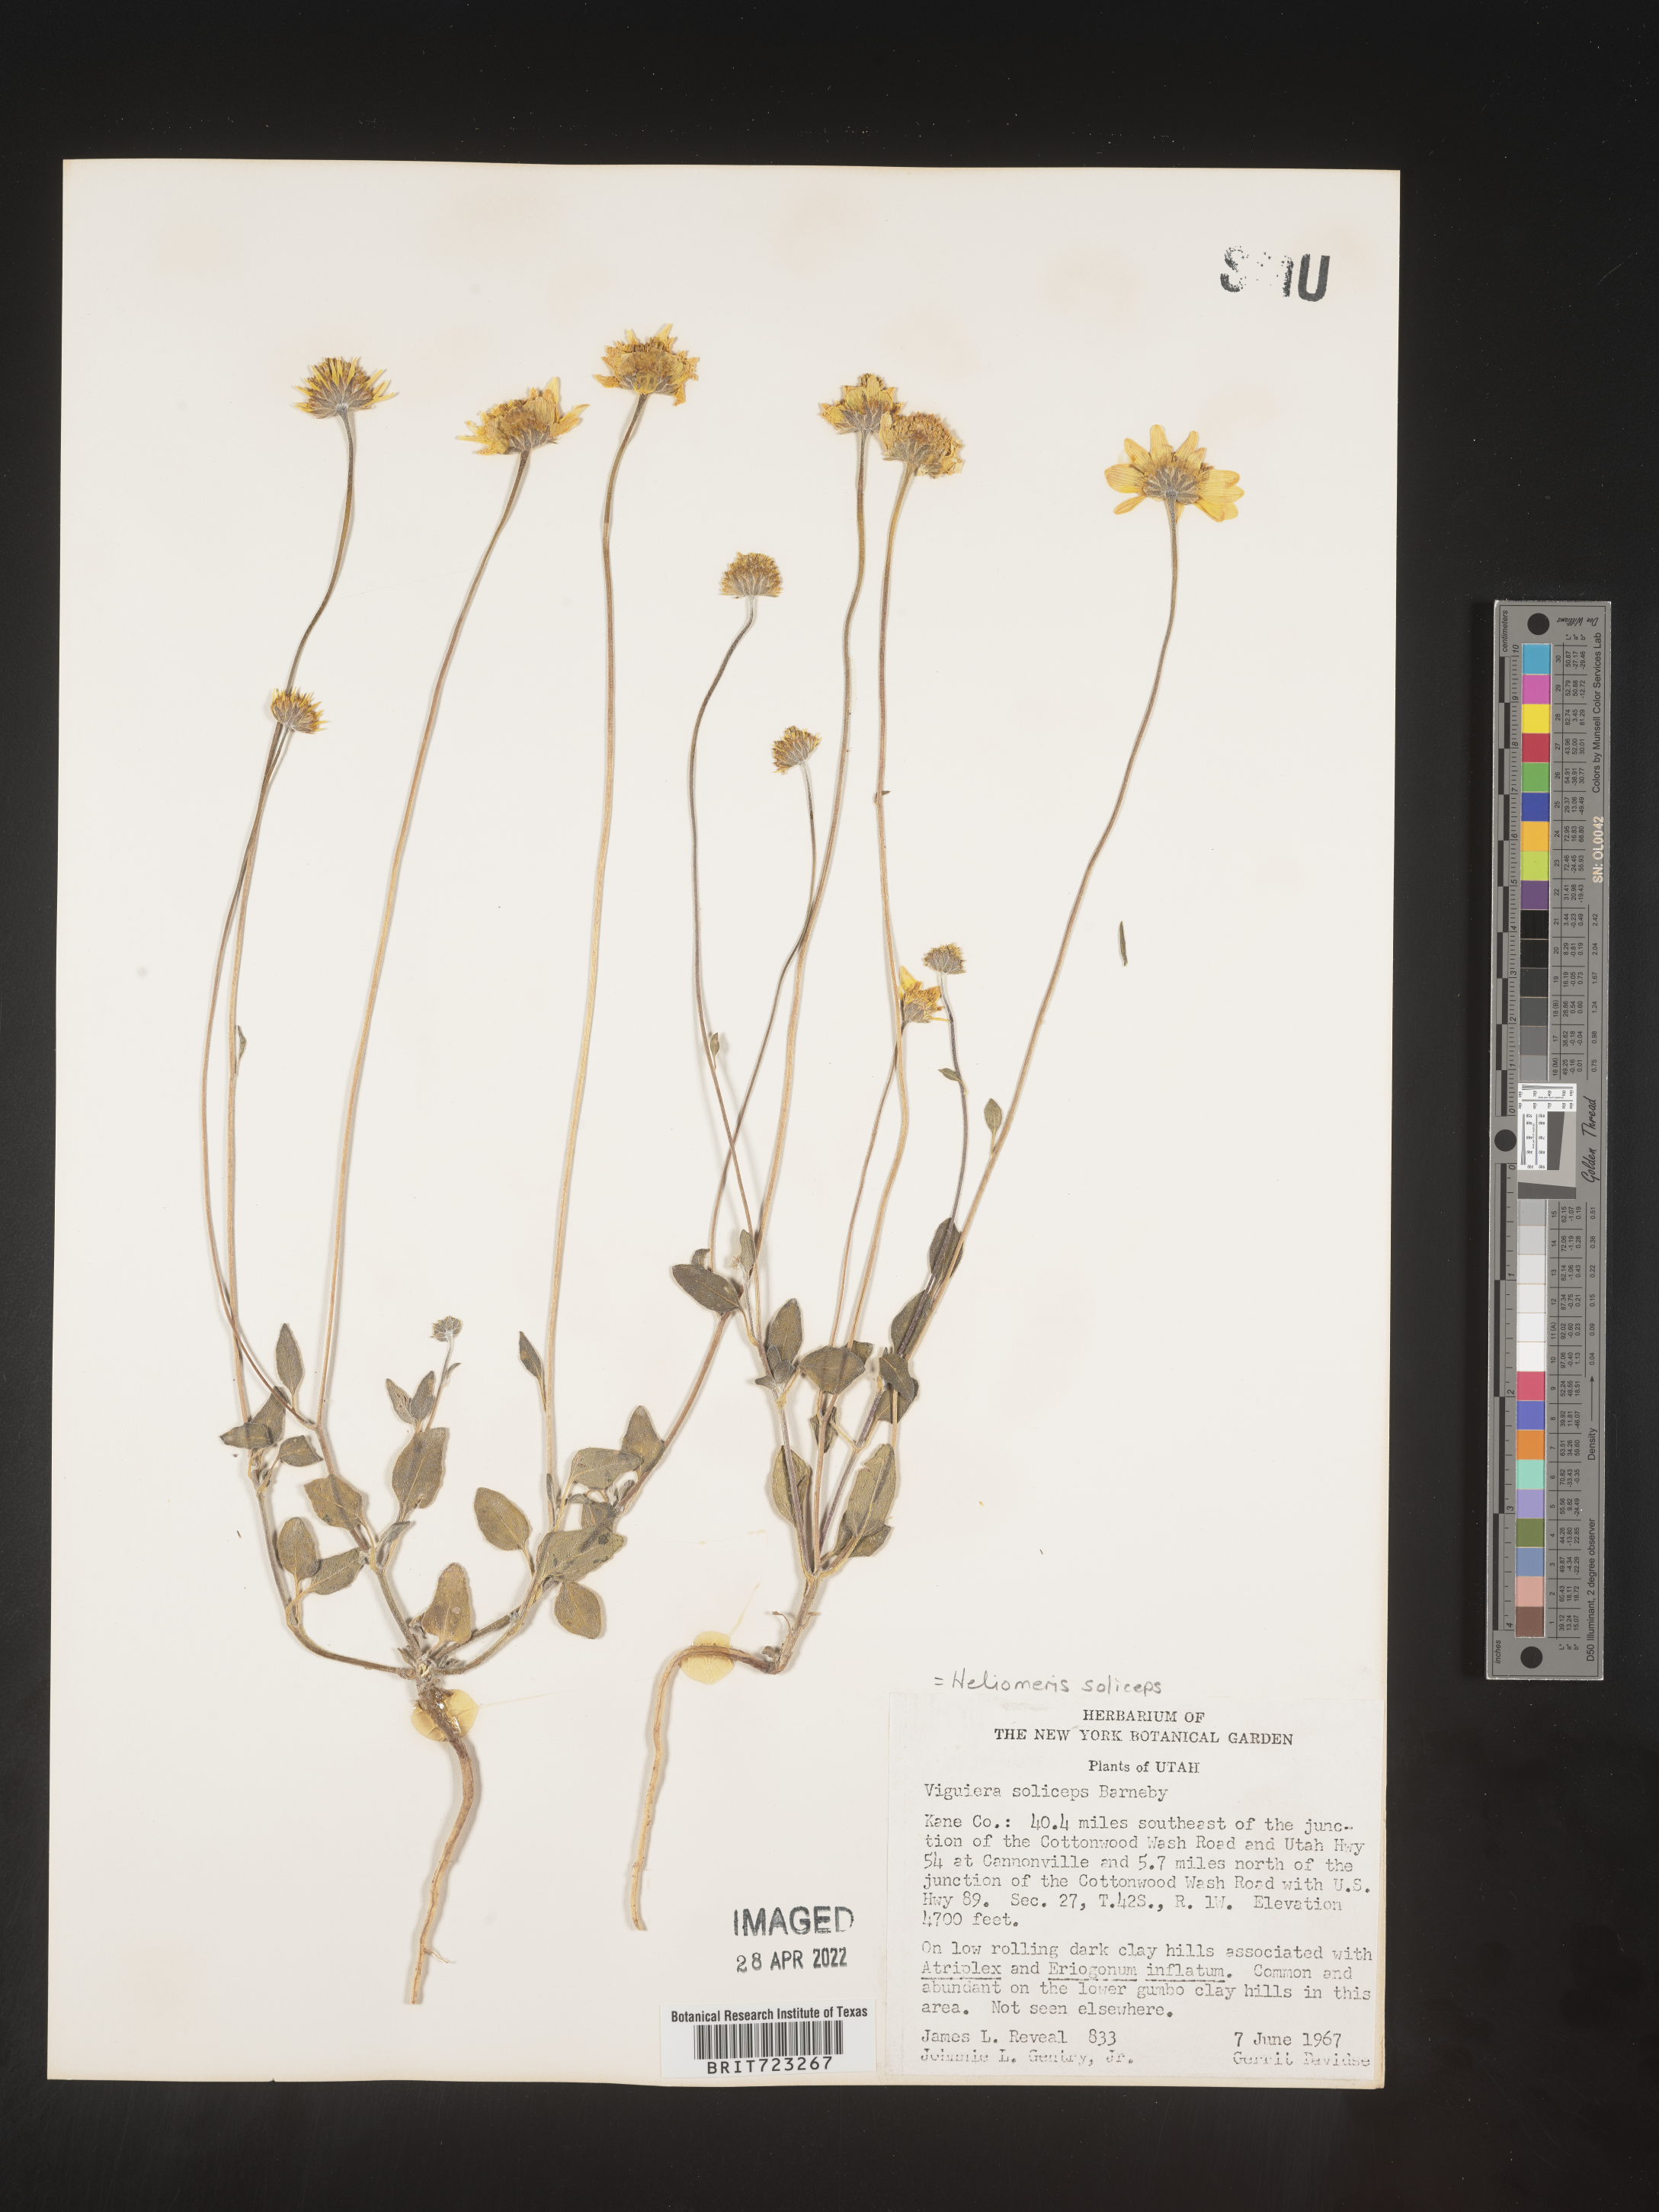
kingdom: Plantae
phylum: Tracheophyta
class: Magnoliopsida
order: Asterales
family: Asteraceae
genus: Heliomeris
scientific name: Heliomeris soliceps
